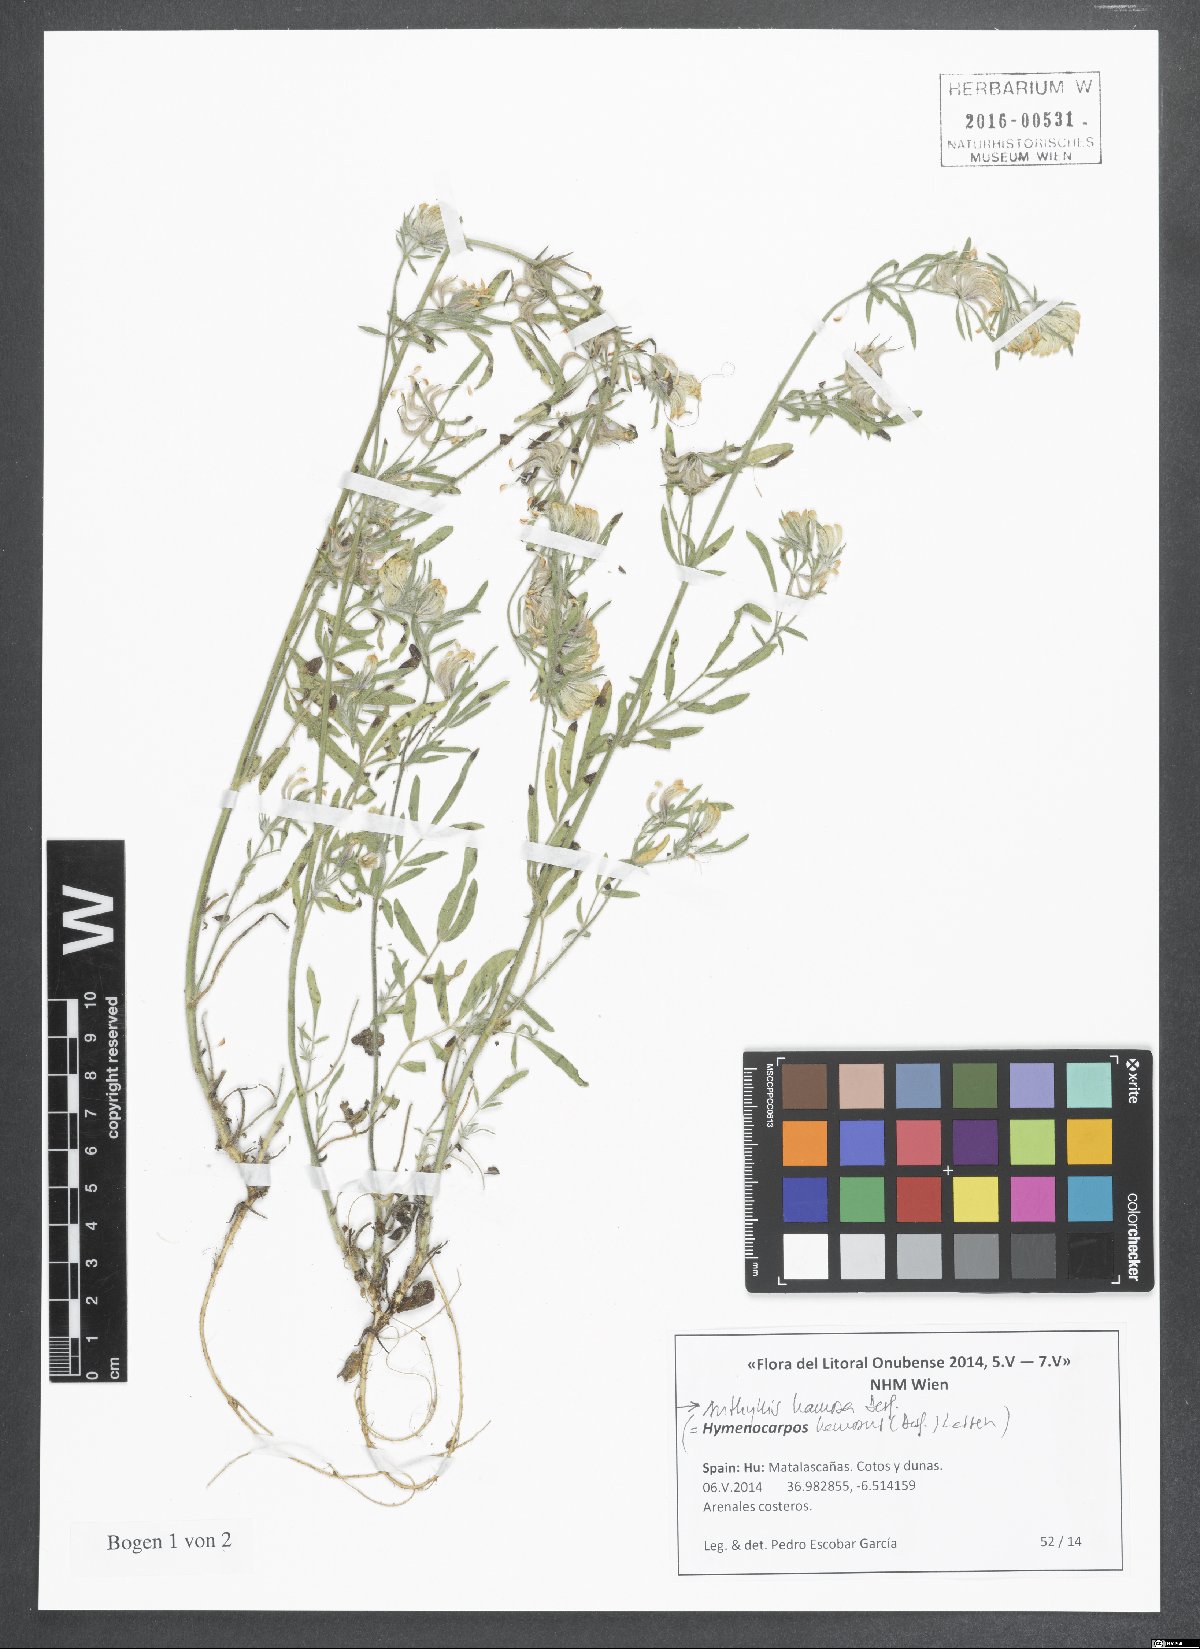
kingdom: Plantae
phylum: Tracheophyta
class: Magnoliopsida
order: Fabales
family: Fabaceae
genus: Anthyllis
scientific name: Anthyllis hamosa
